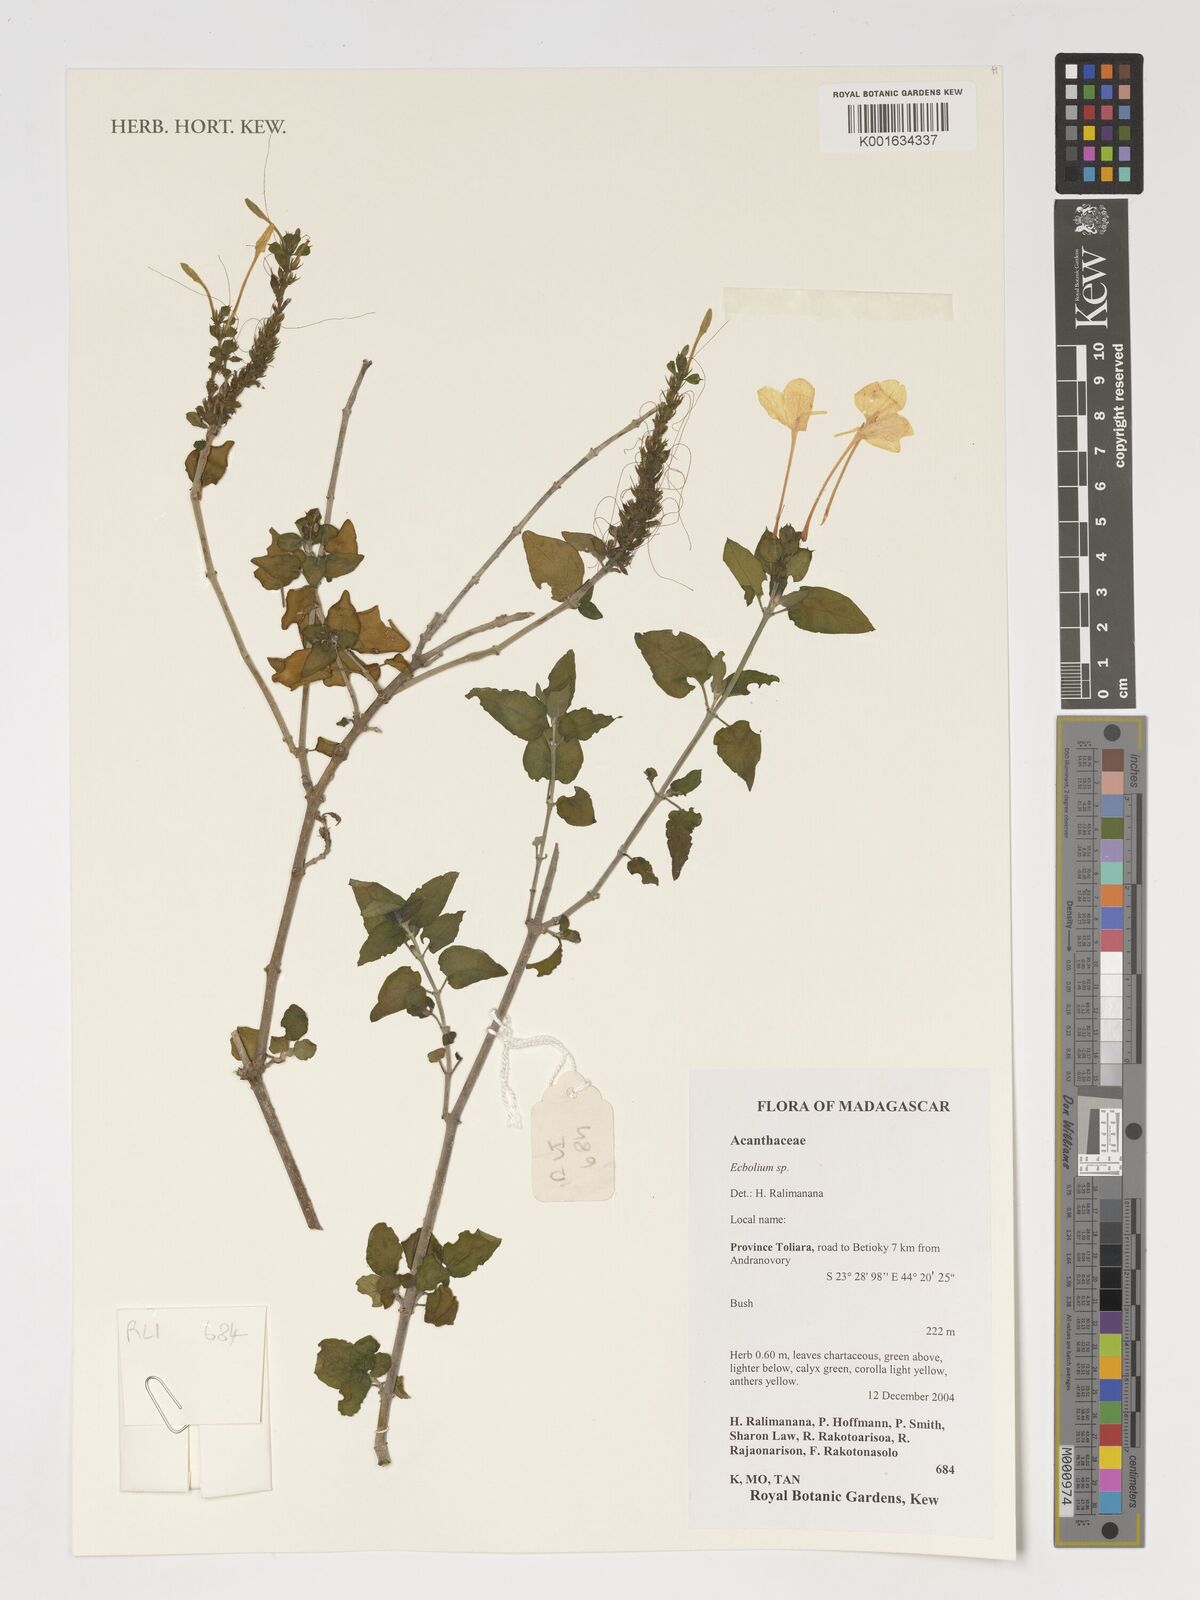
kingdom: Plantae
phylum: Tracheophyta
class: Magnoliopsida
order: Lamiales
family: Acanthaceae
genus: Ecbolium
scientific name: Ecbolium
